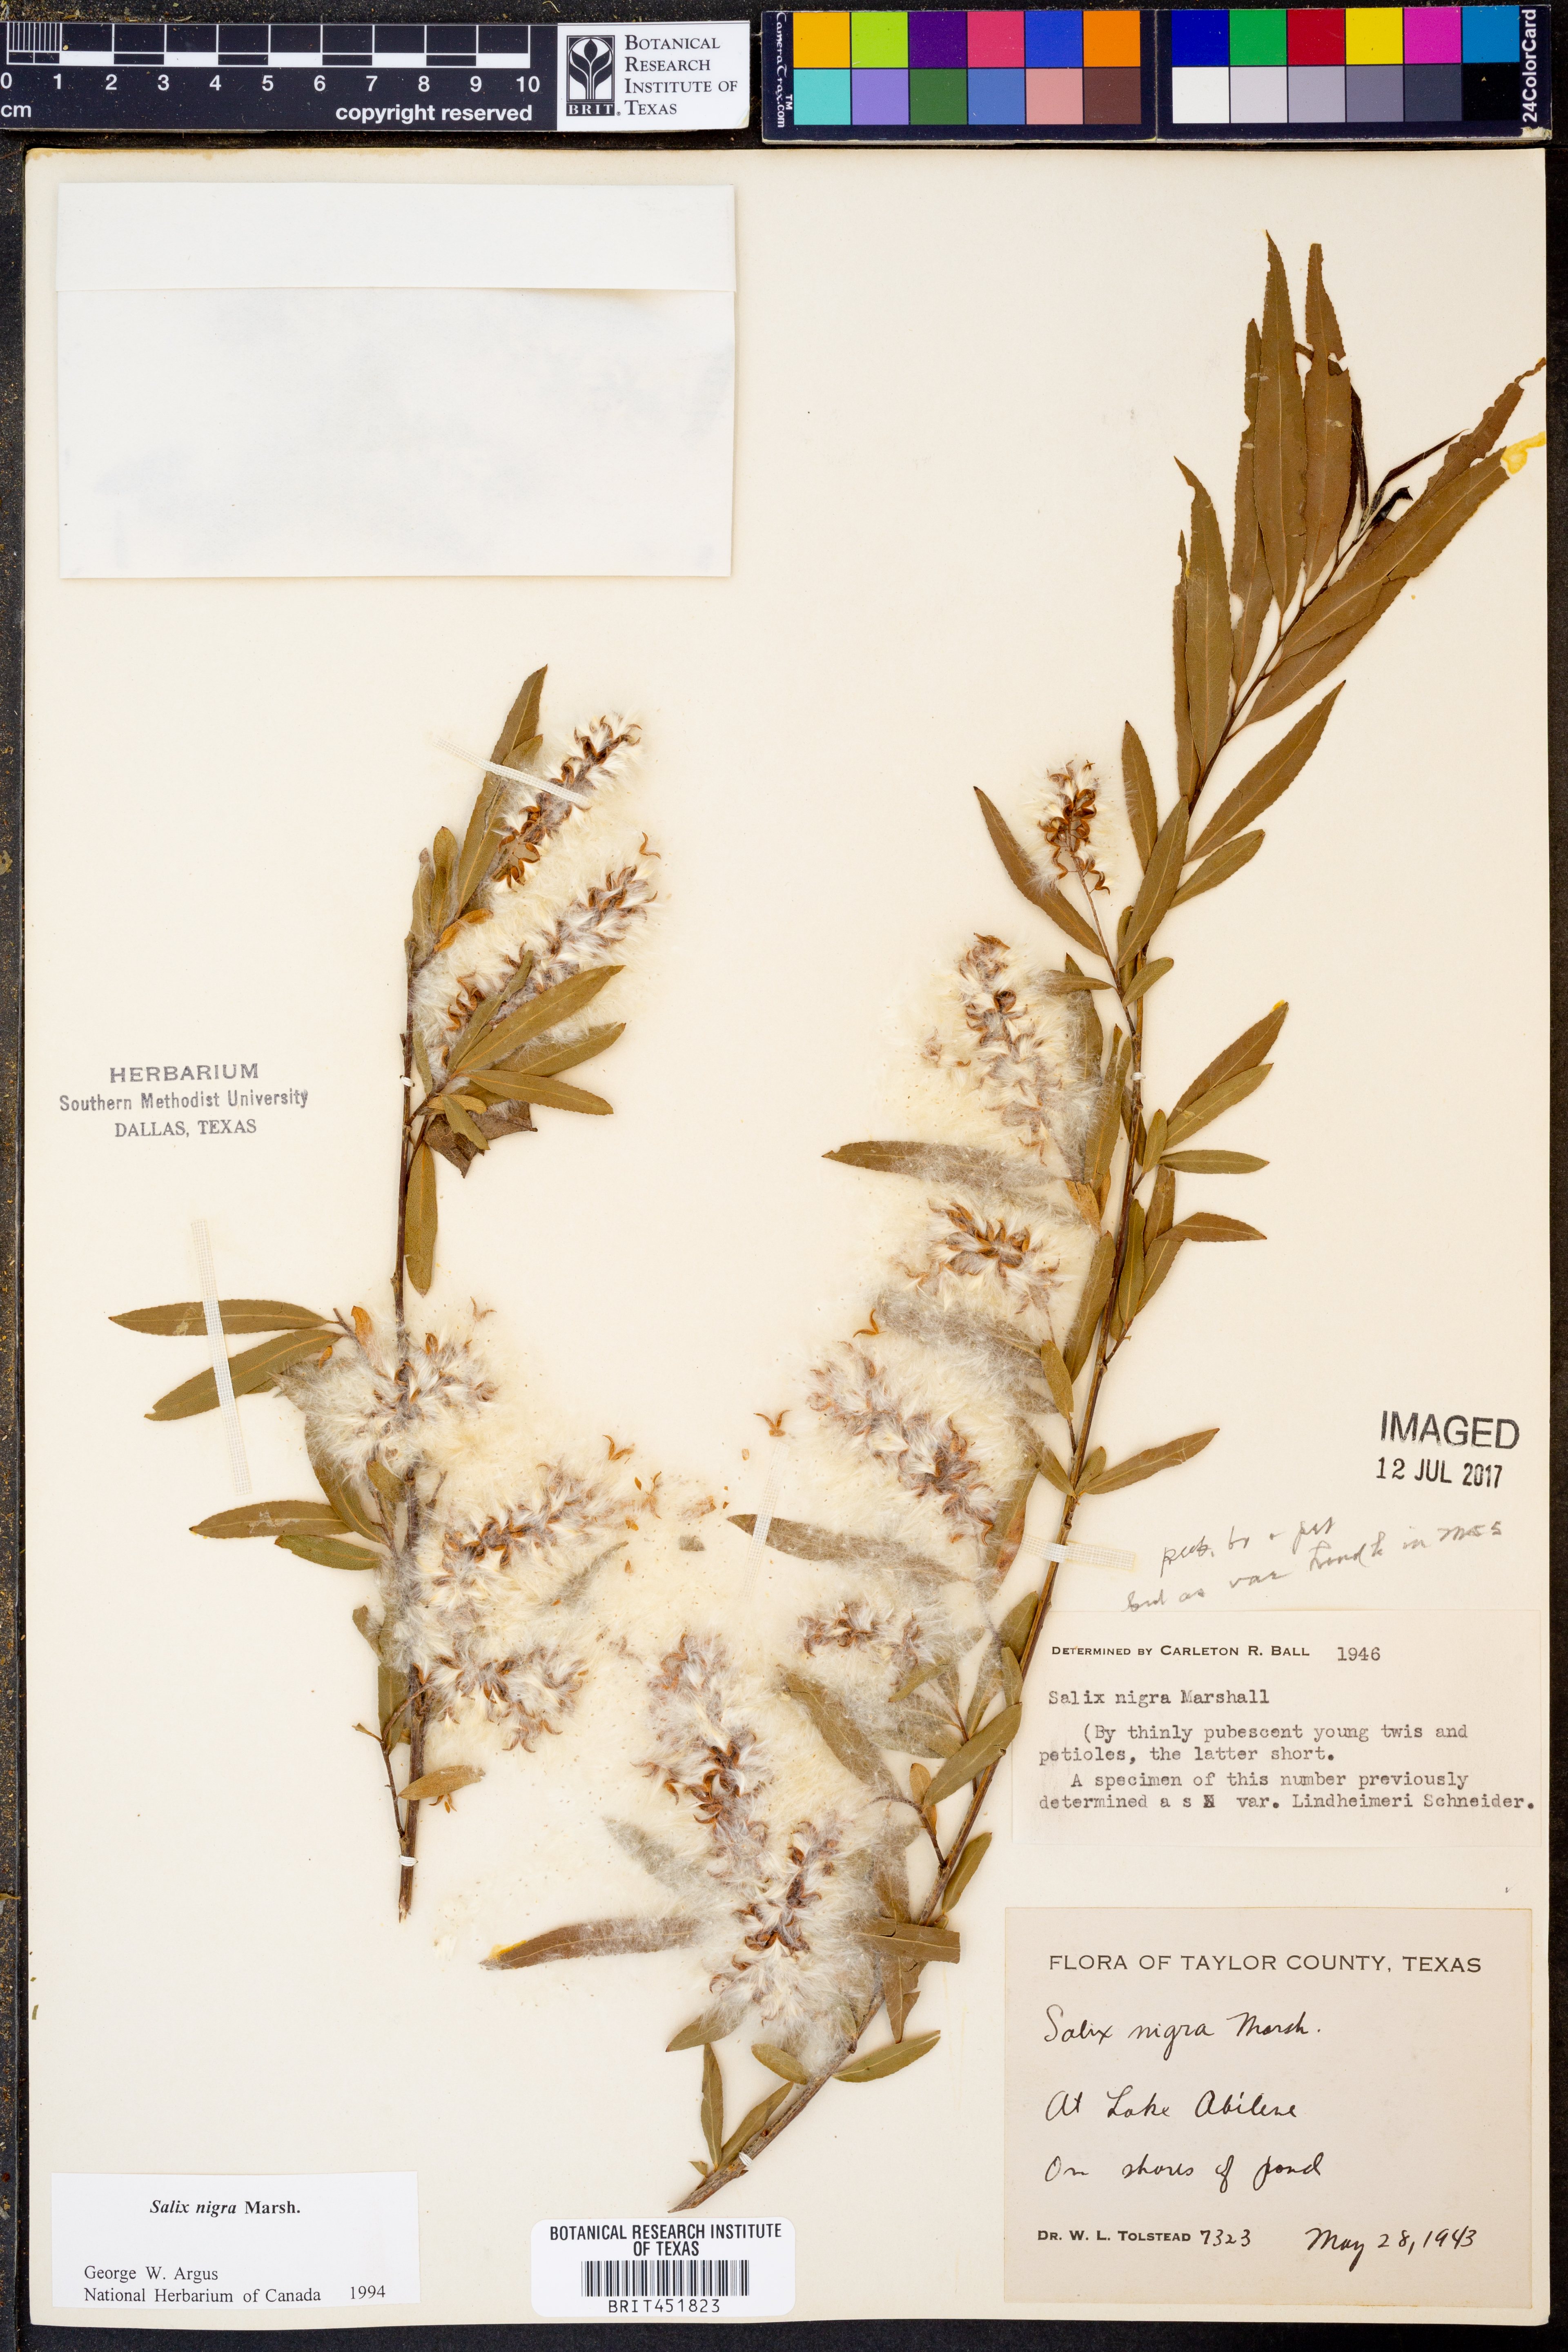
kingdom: Plantae
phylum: Tracheophyta
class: Magnoliopsida
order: Malpighiales
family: Salicaceae
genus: Salix
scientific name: Salix nigra
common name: Black willow
